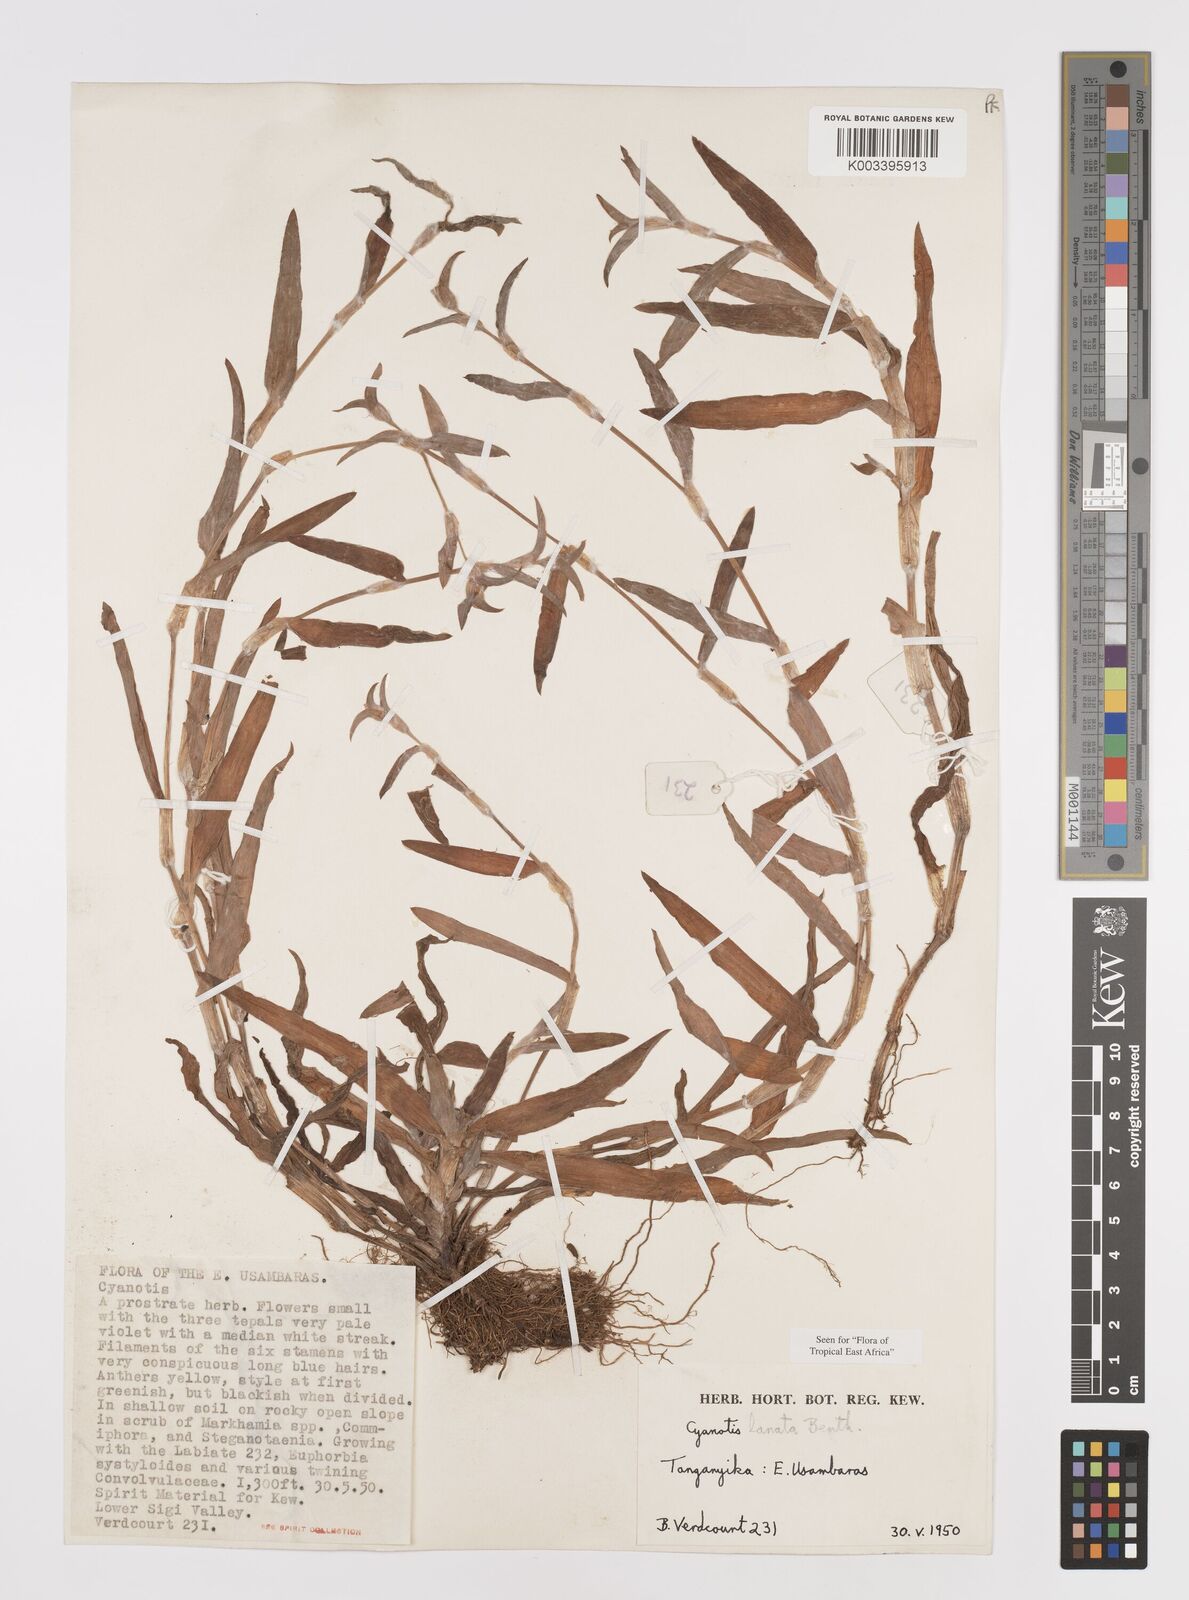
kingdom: Plantae
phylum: Tracheophyta
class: Liliopsida
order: Commelinales
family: Commelinaceae
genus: Cyanotis
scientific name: Cyanotis lanata
